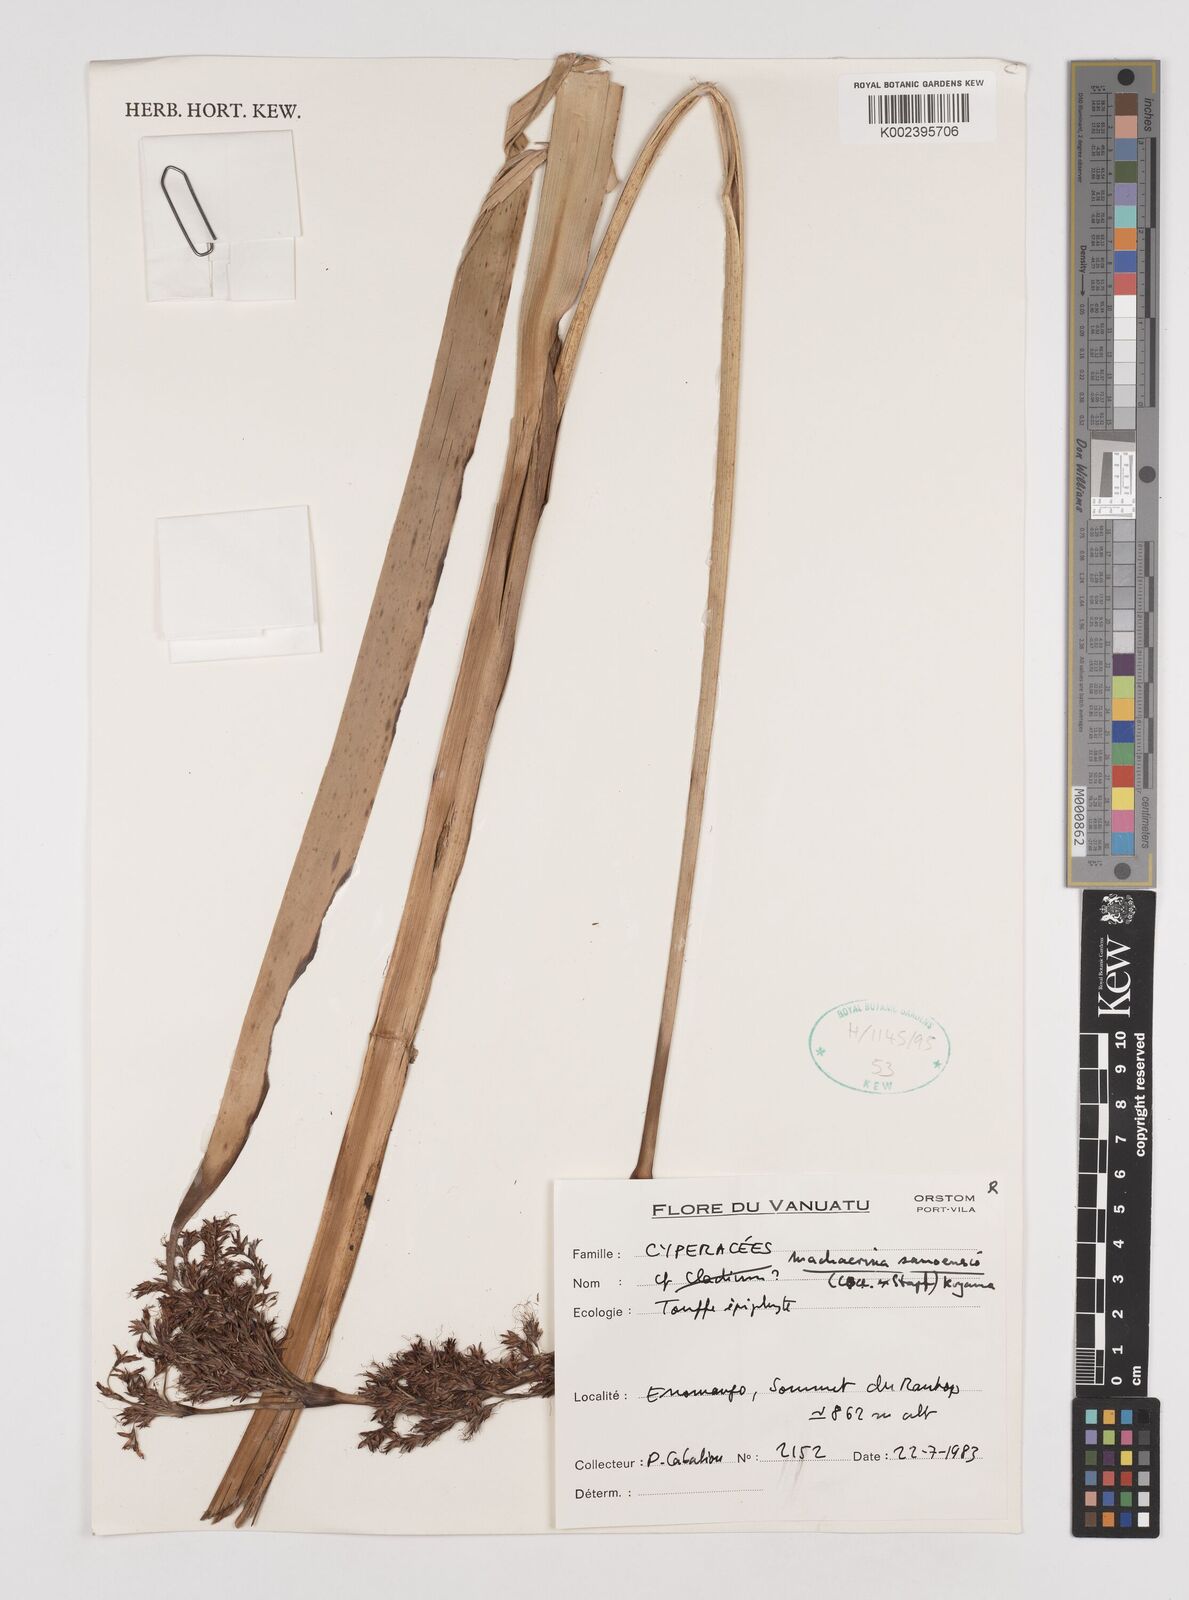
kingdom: Plantae
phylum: Tracheophyta
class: Liliopsida
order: Poales
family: Cyperaceae
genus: Machaerina
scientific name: Machaerina falcata
